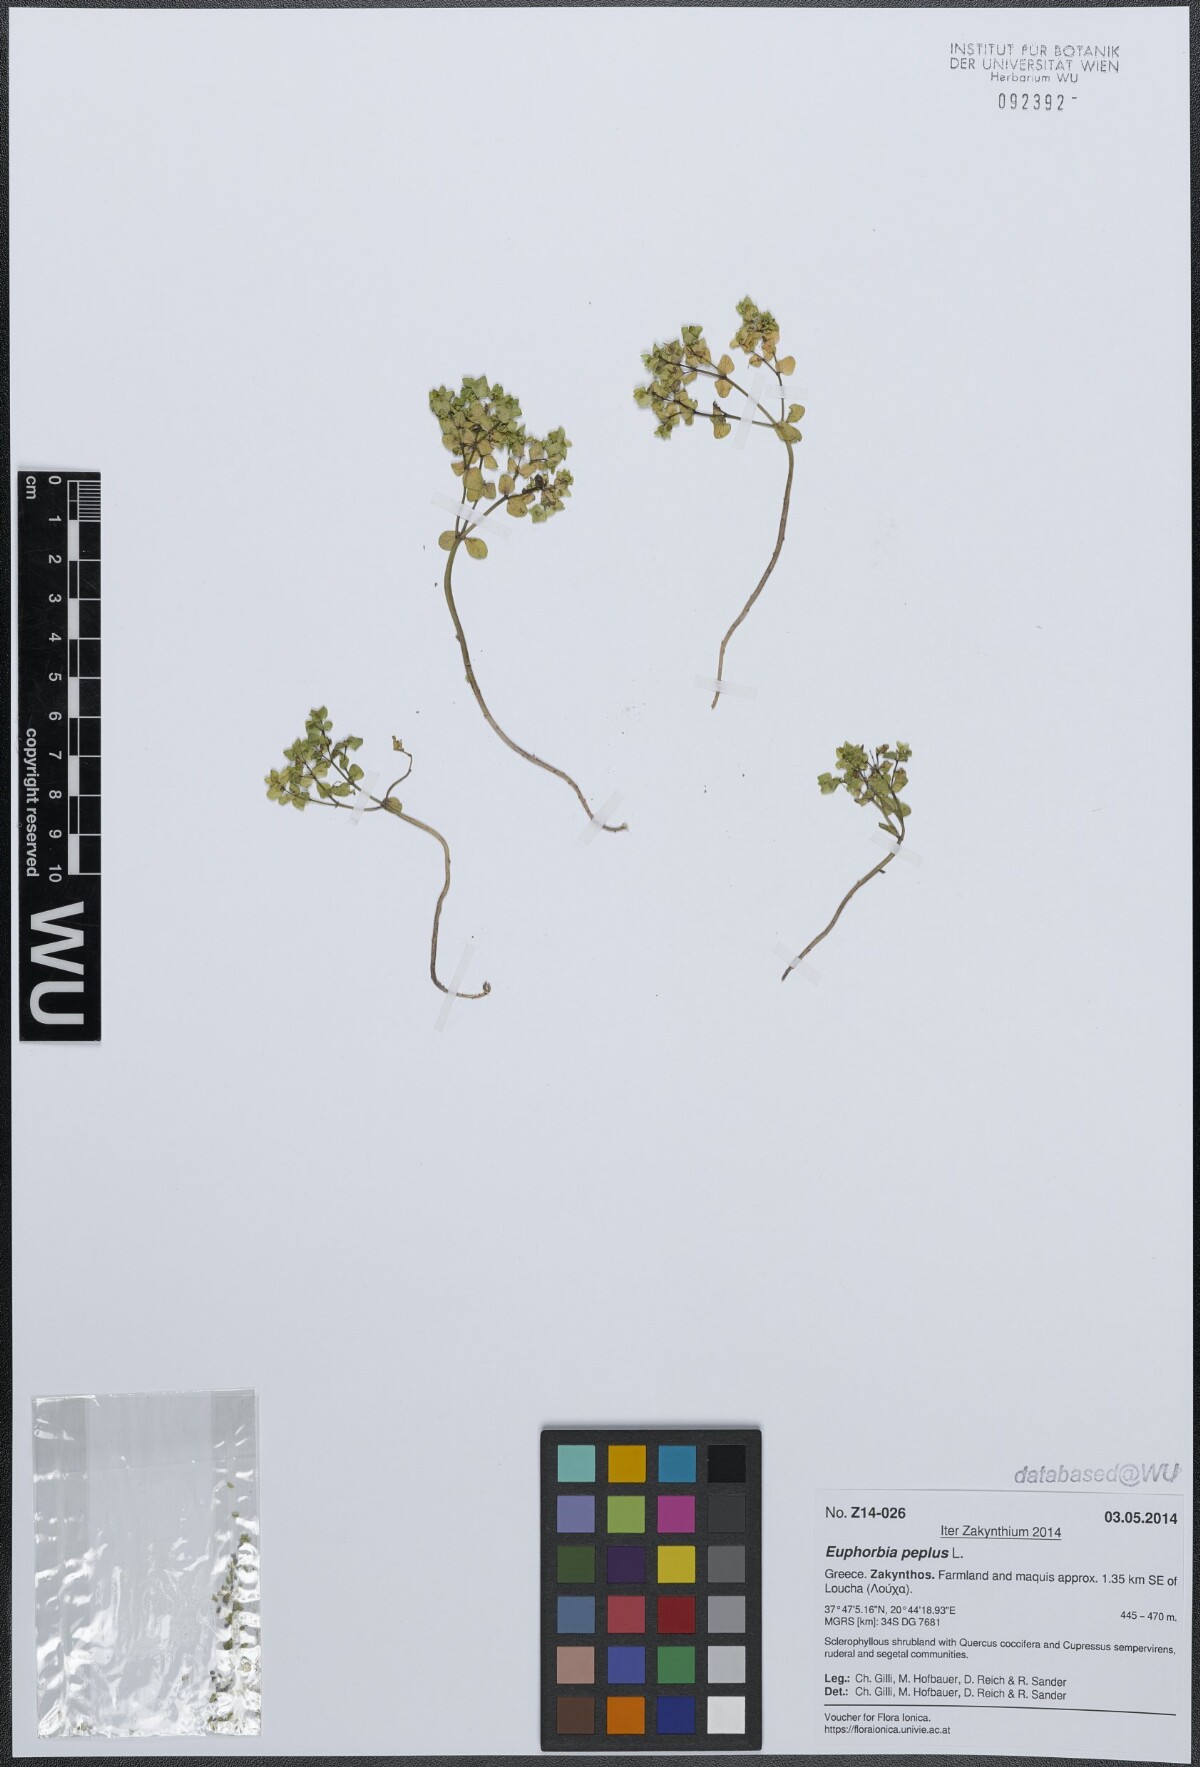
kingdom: Plantae
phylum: Tracheophyta
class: Magnoliopsida
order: Malpighiales
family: Euphorbiaceae
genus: Euphorbia
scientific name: Euphorbia peplus
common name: Petty spurge
